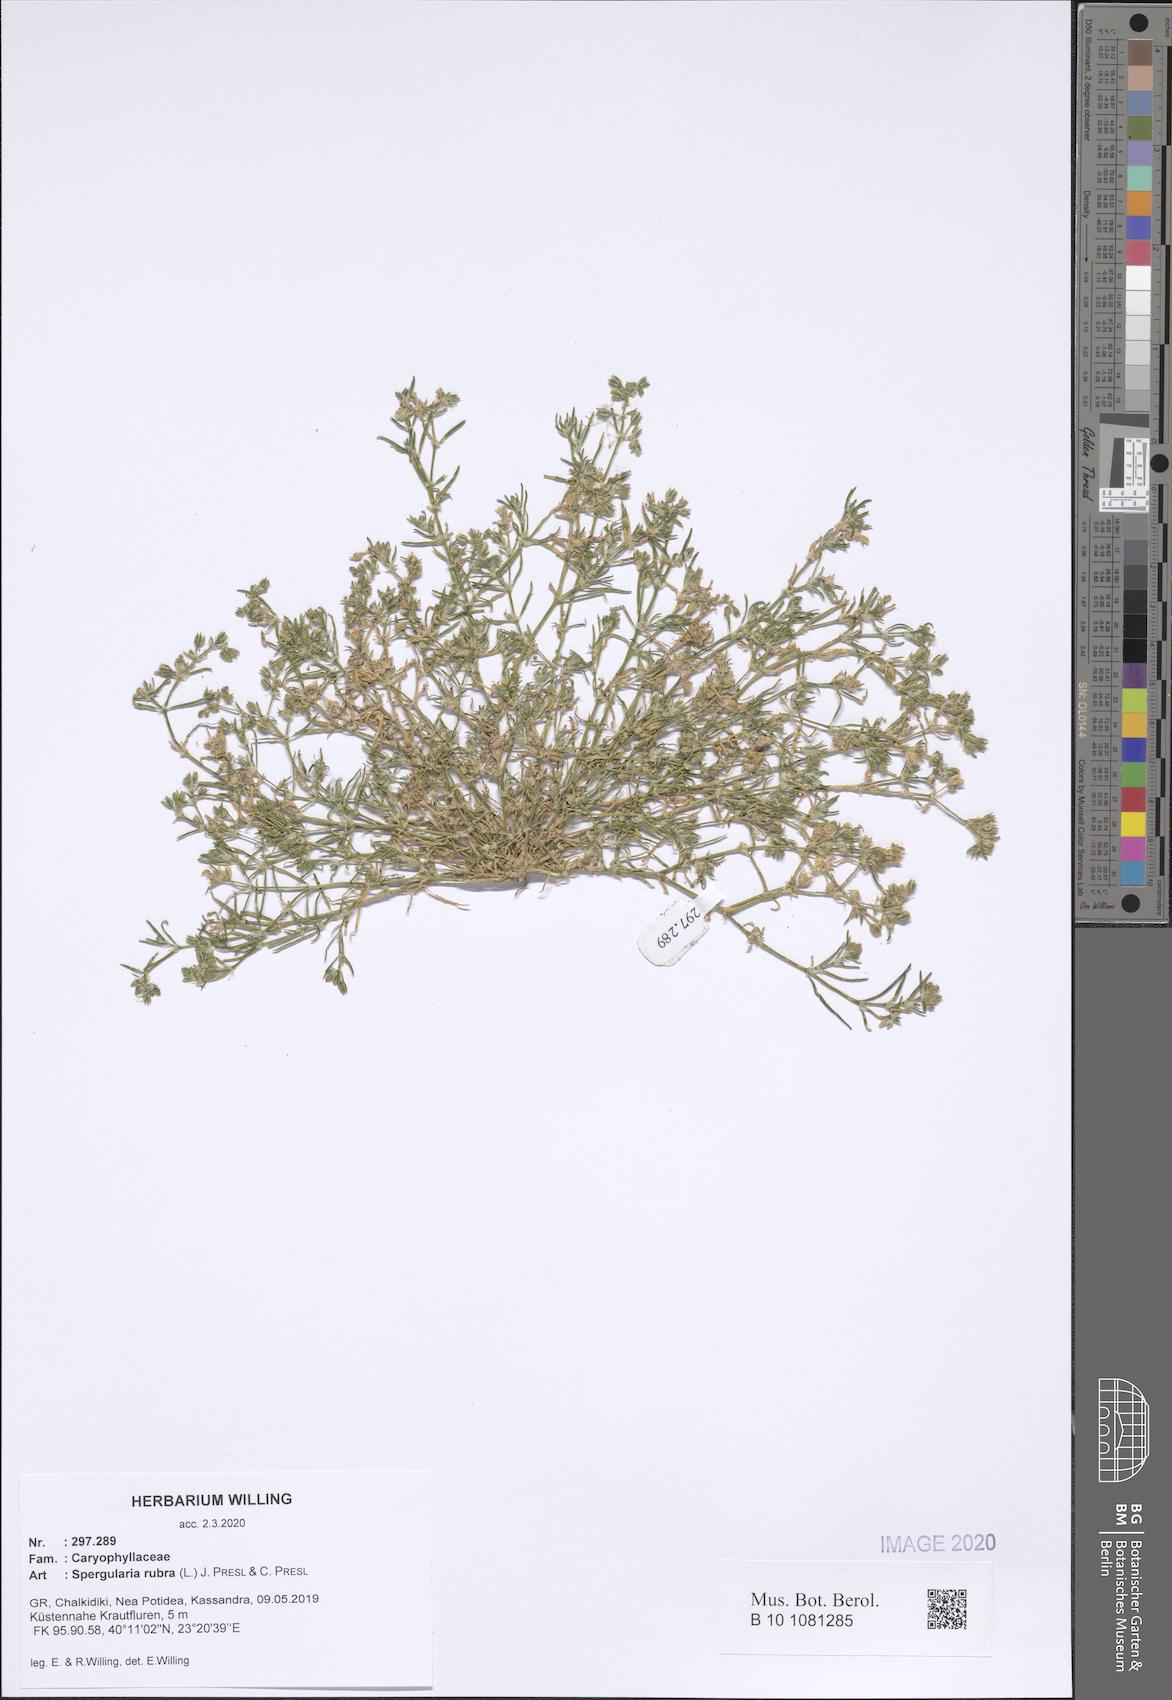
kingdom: Plantae
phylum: Tracheophyta
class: Magnoliopsida
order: Caryophyllales
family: Caryophyllaceae
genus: Spergularia
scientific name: Spergularia rubra
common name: Red sand-spurrey
